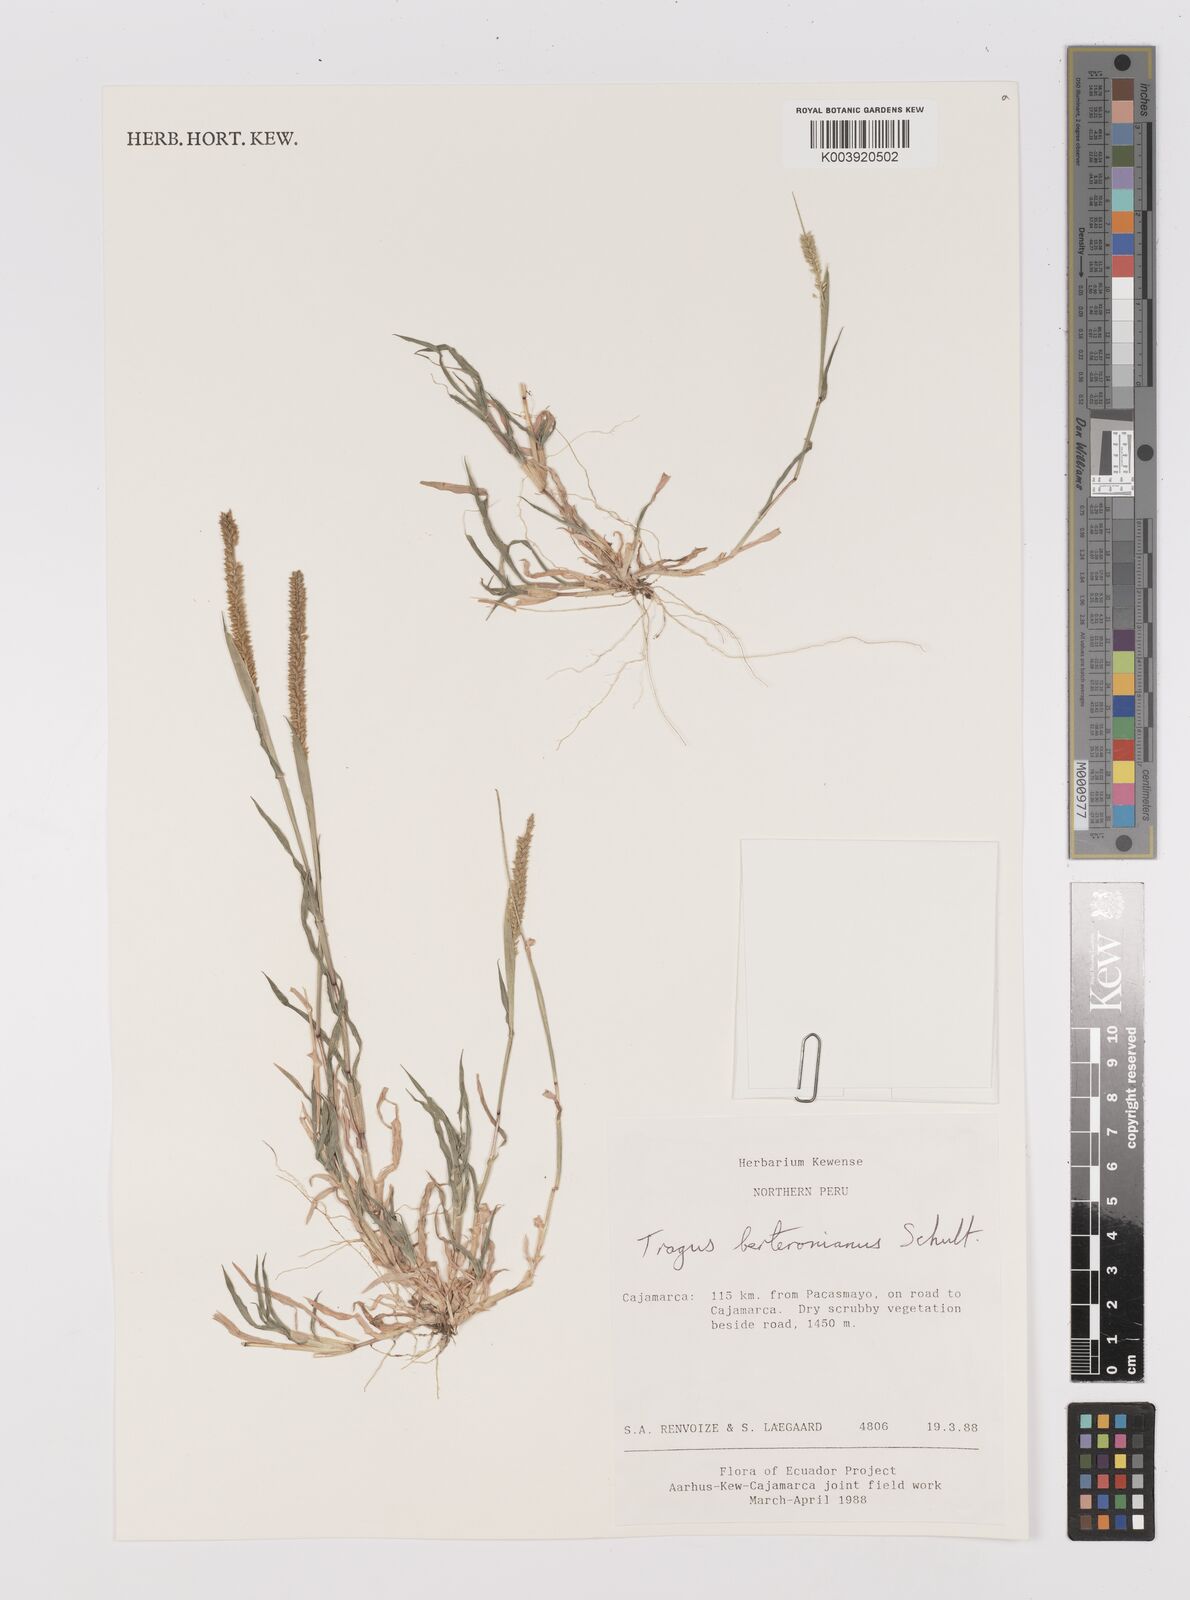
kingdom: Plantae
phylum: Tracheophyta
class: Liliopsida
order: Poales
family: Poaceae
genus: Tragus
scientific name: Tragus berteronianus
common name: African bur-grass
